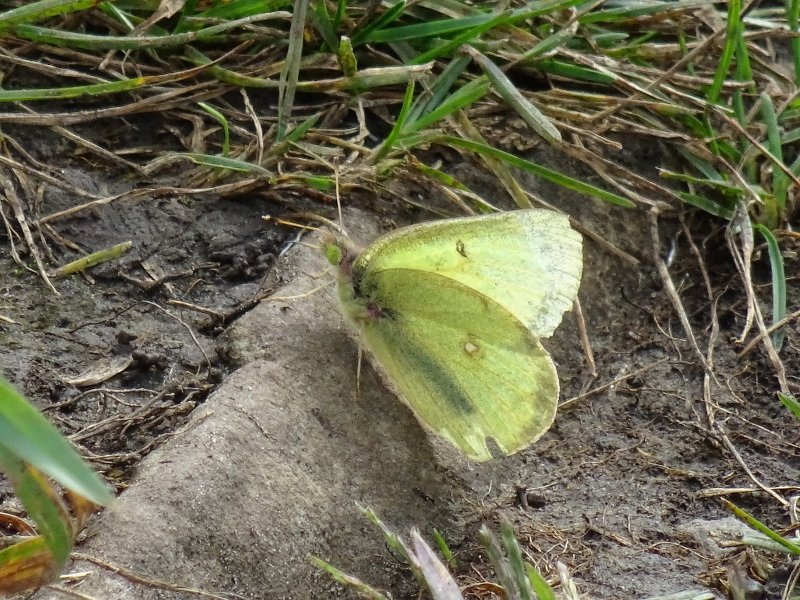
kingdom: Animalia
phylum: Arthropoda
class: Insecta
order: Lepidoptera
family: Pieridae
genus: Colias
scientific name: Colias philodice
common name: Clouded Sulphur
